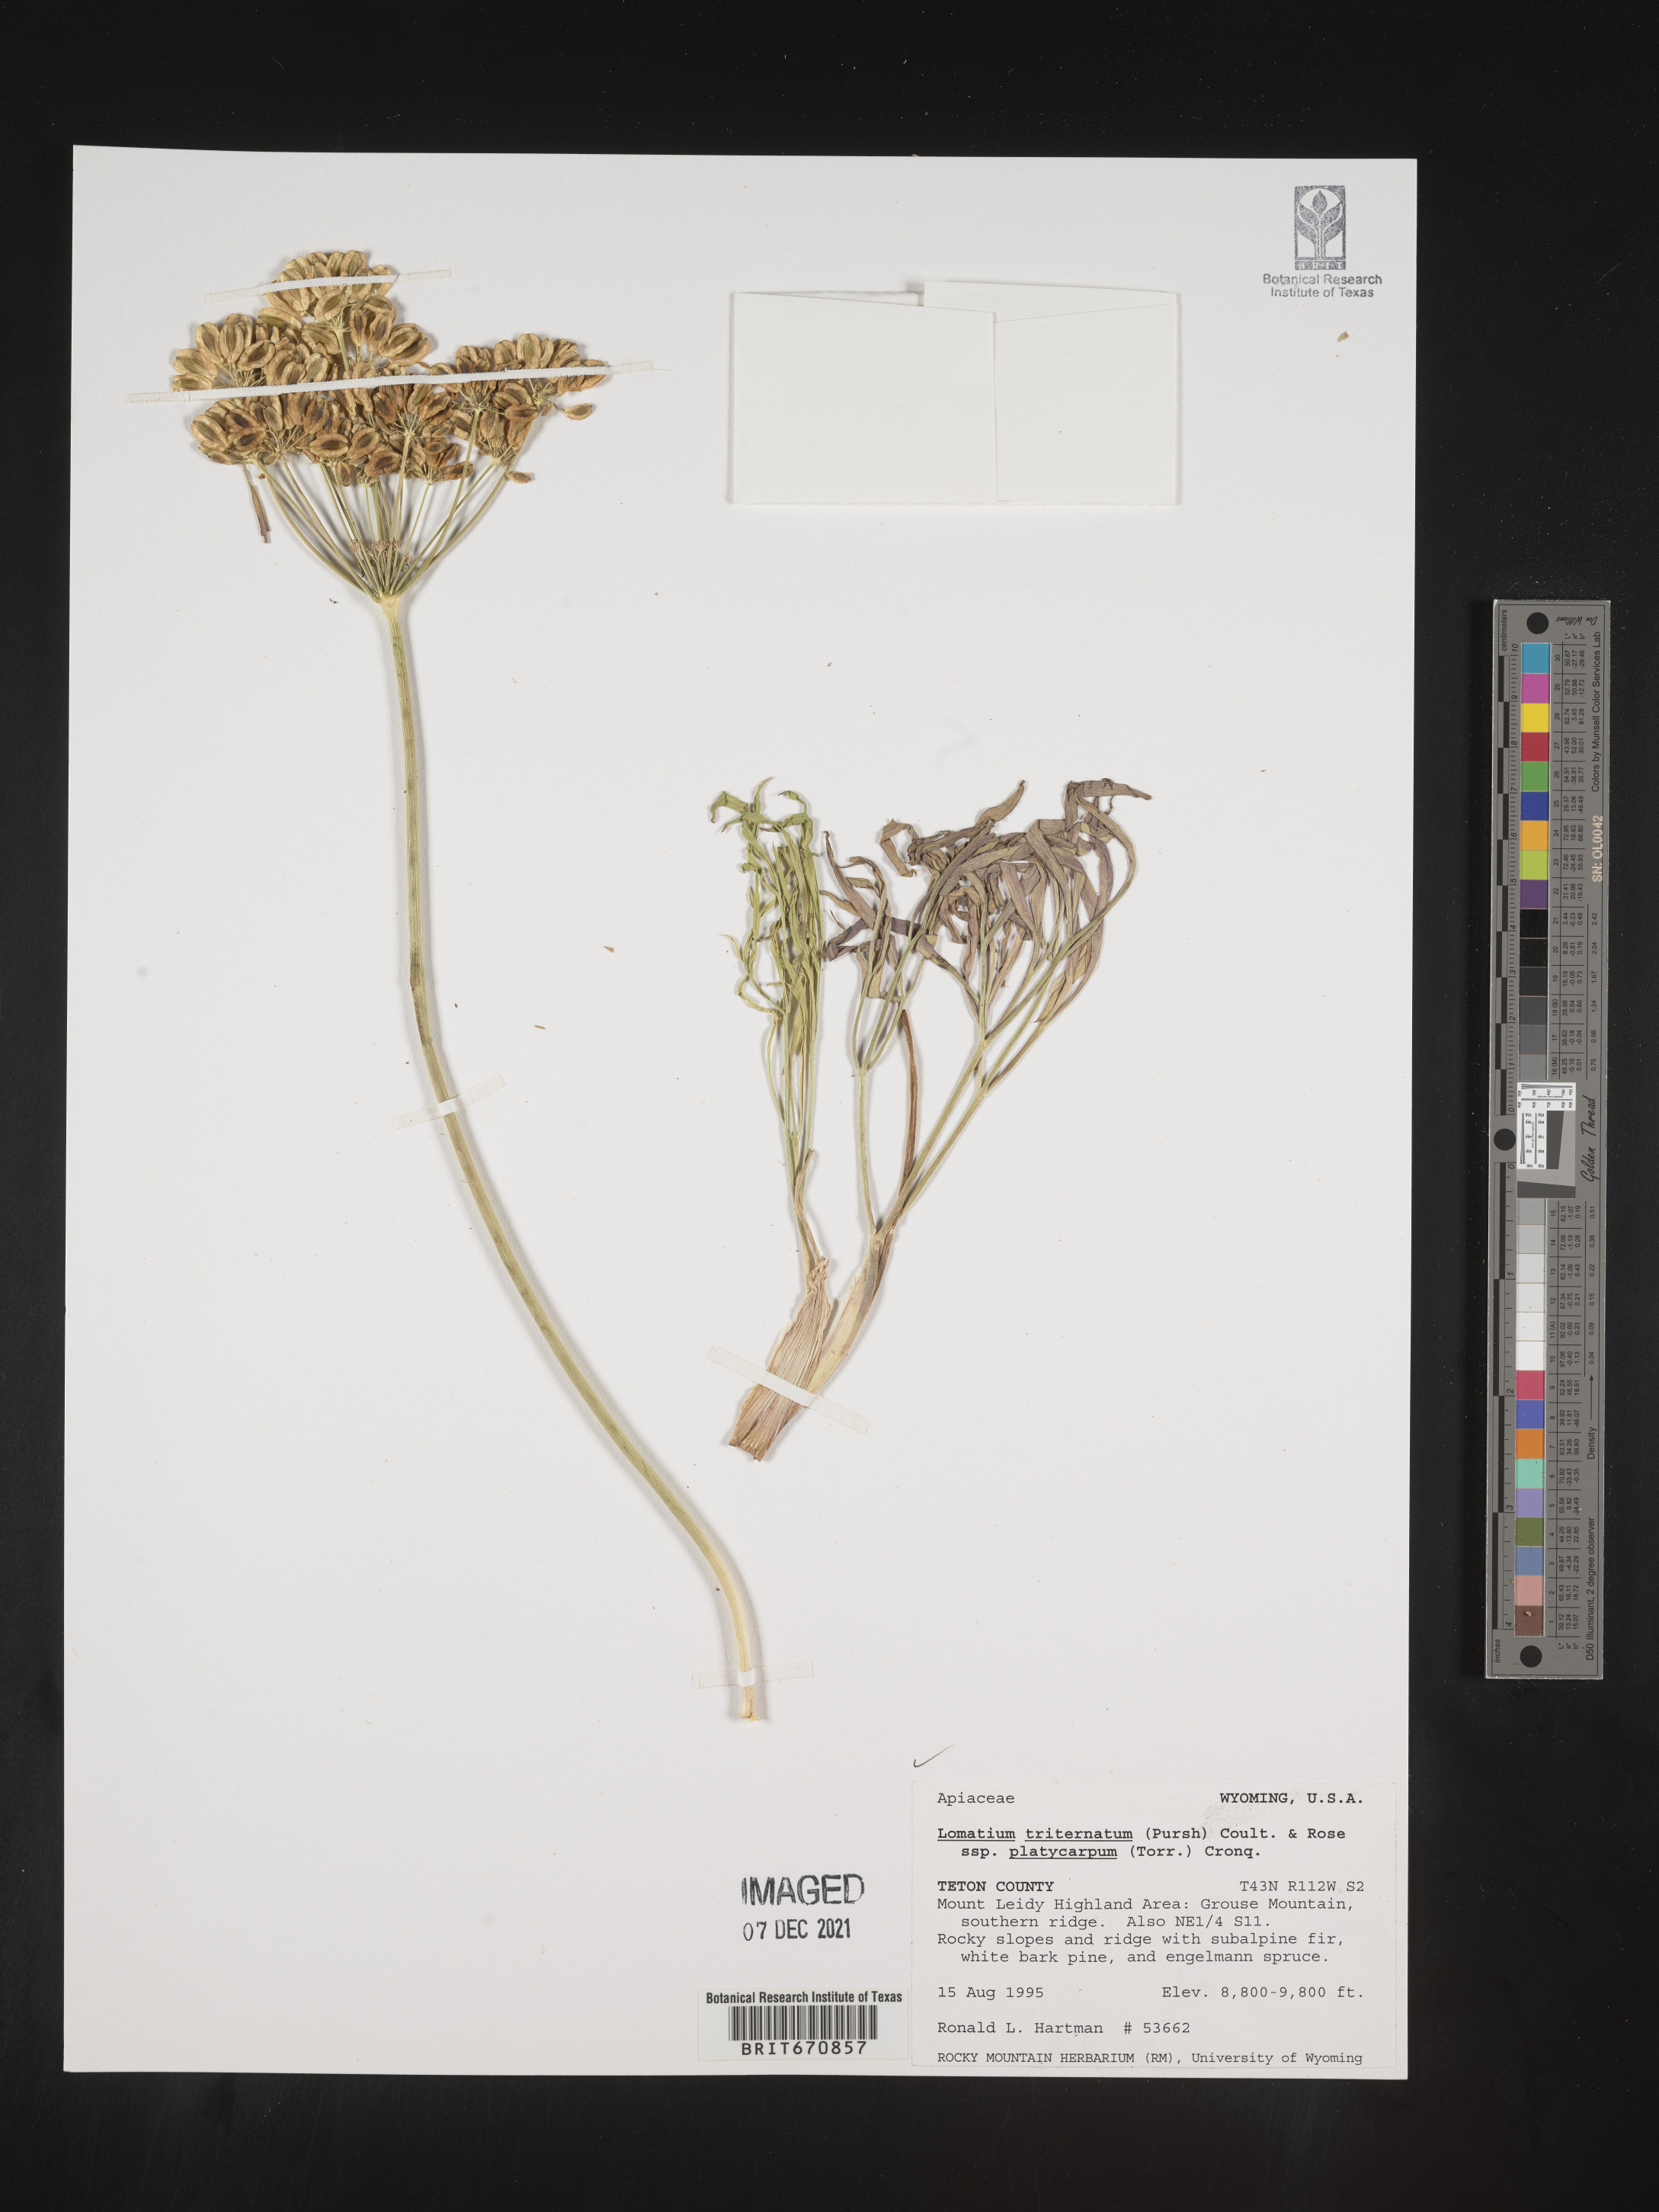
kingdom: Plantae
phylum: Tracheophyta
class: Magnoliopsida
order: Apiales
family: Apiaceae
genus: Lomatium
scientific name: Lomatium triternatum
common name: Ternate lomatium
